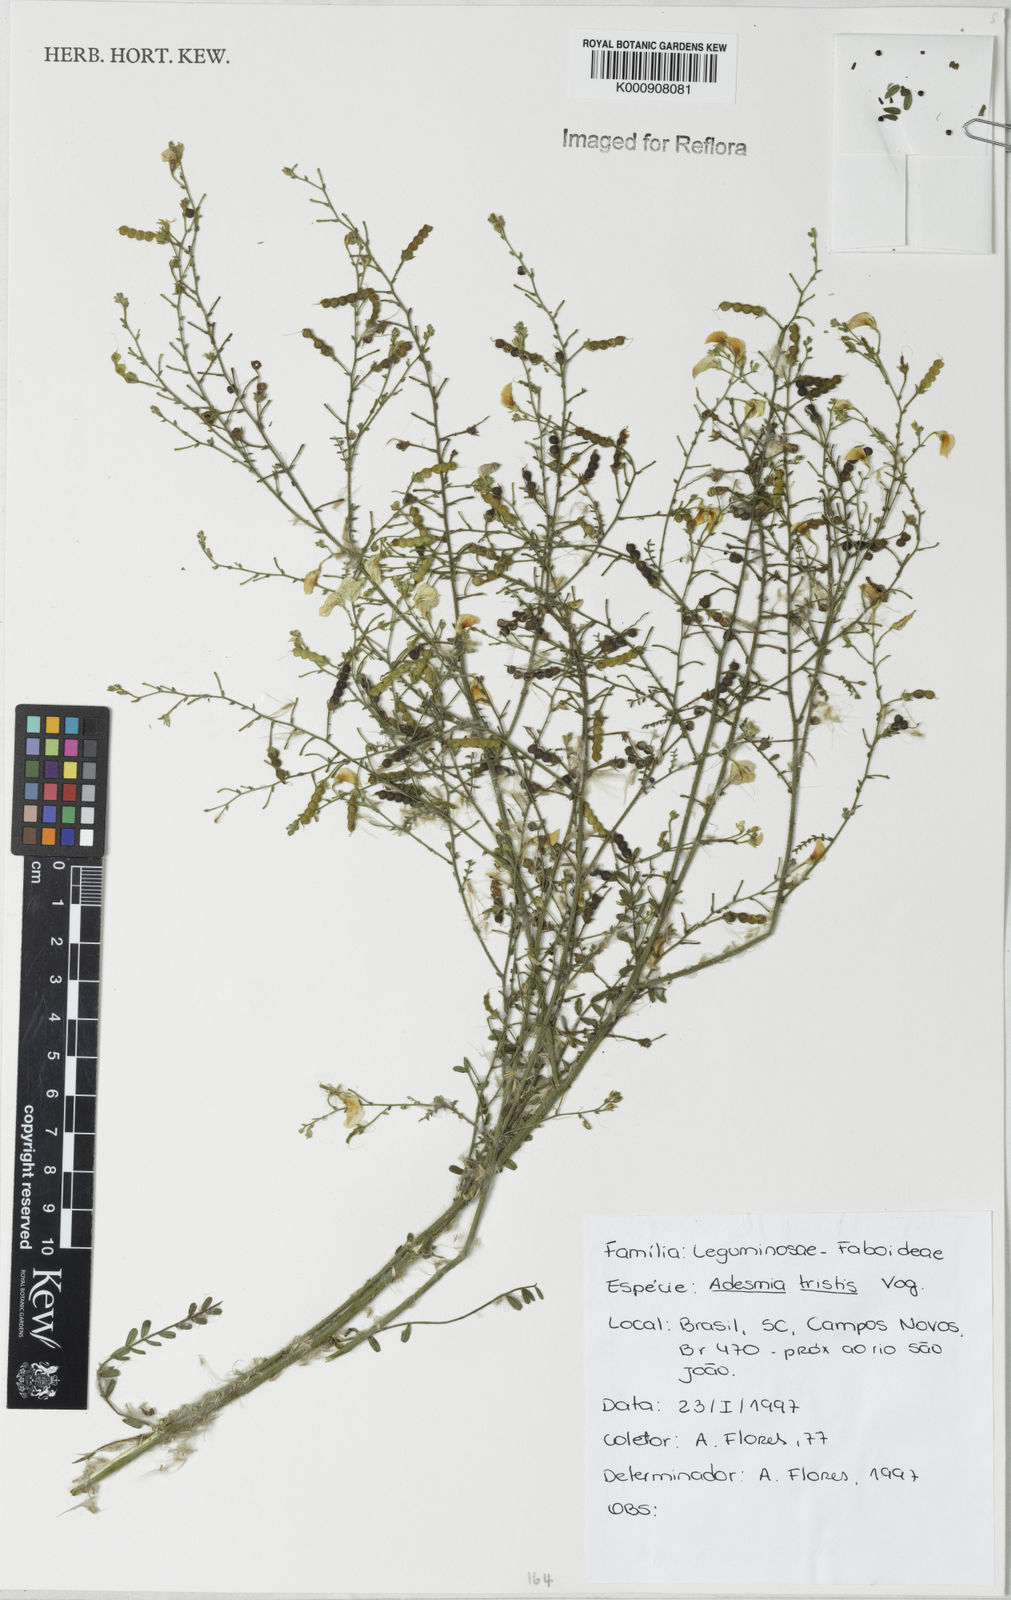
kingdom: Plantae
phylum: Tracheophyta
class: Magnoliopsida
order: Fabales
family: Fabaceae
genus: Adesmia
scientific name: Adesmia tristis
